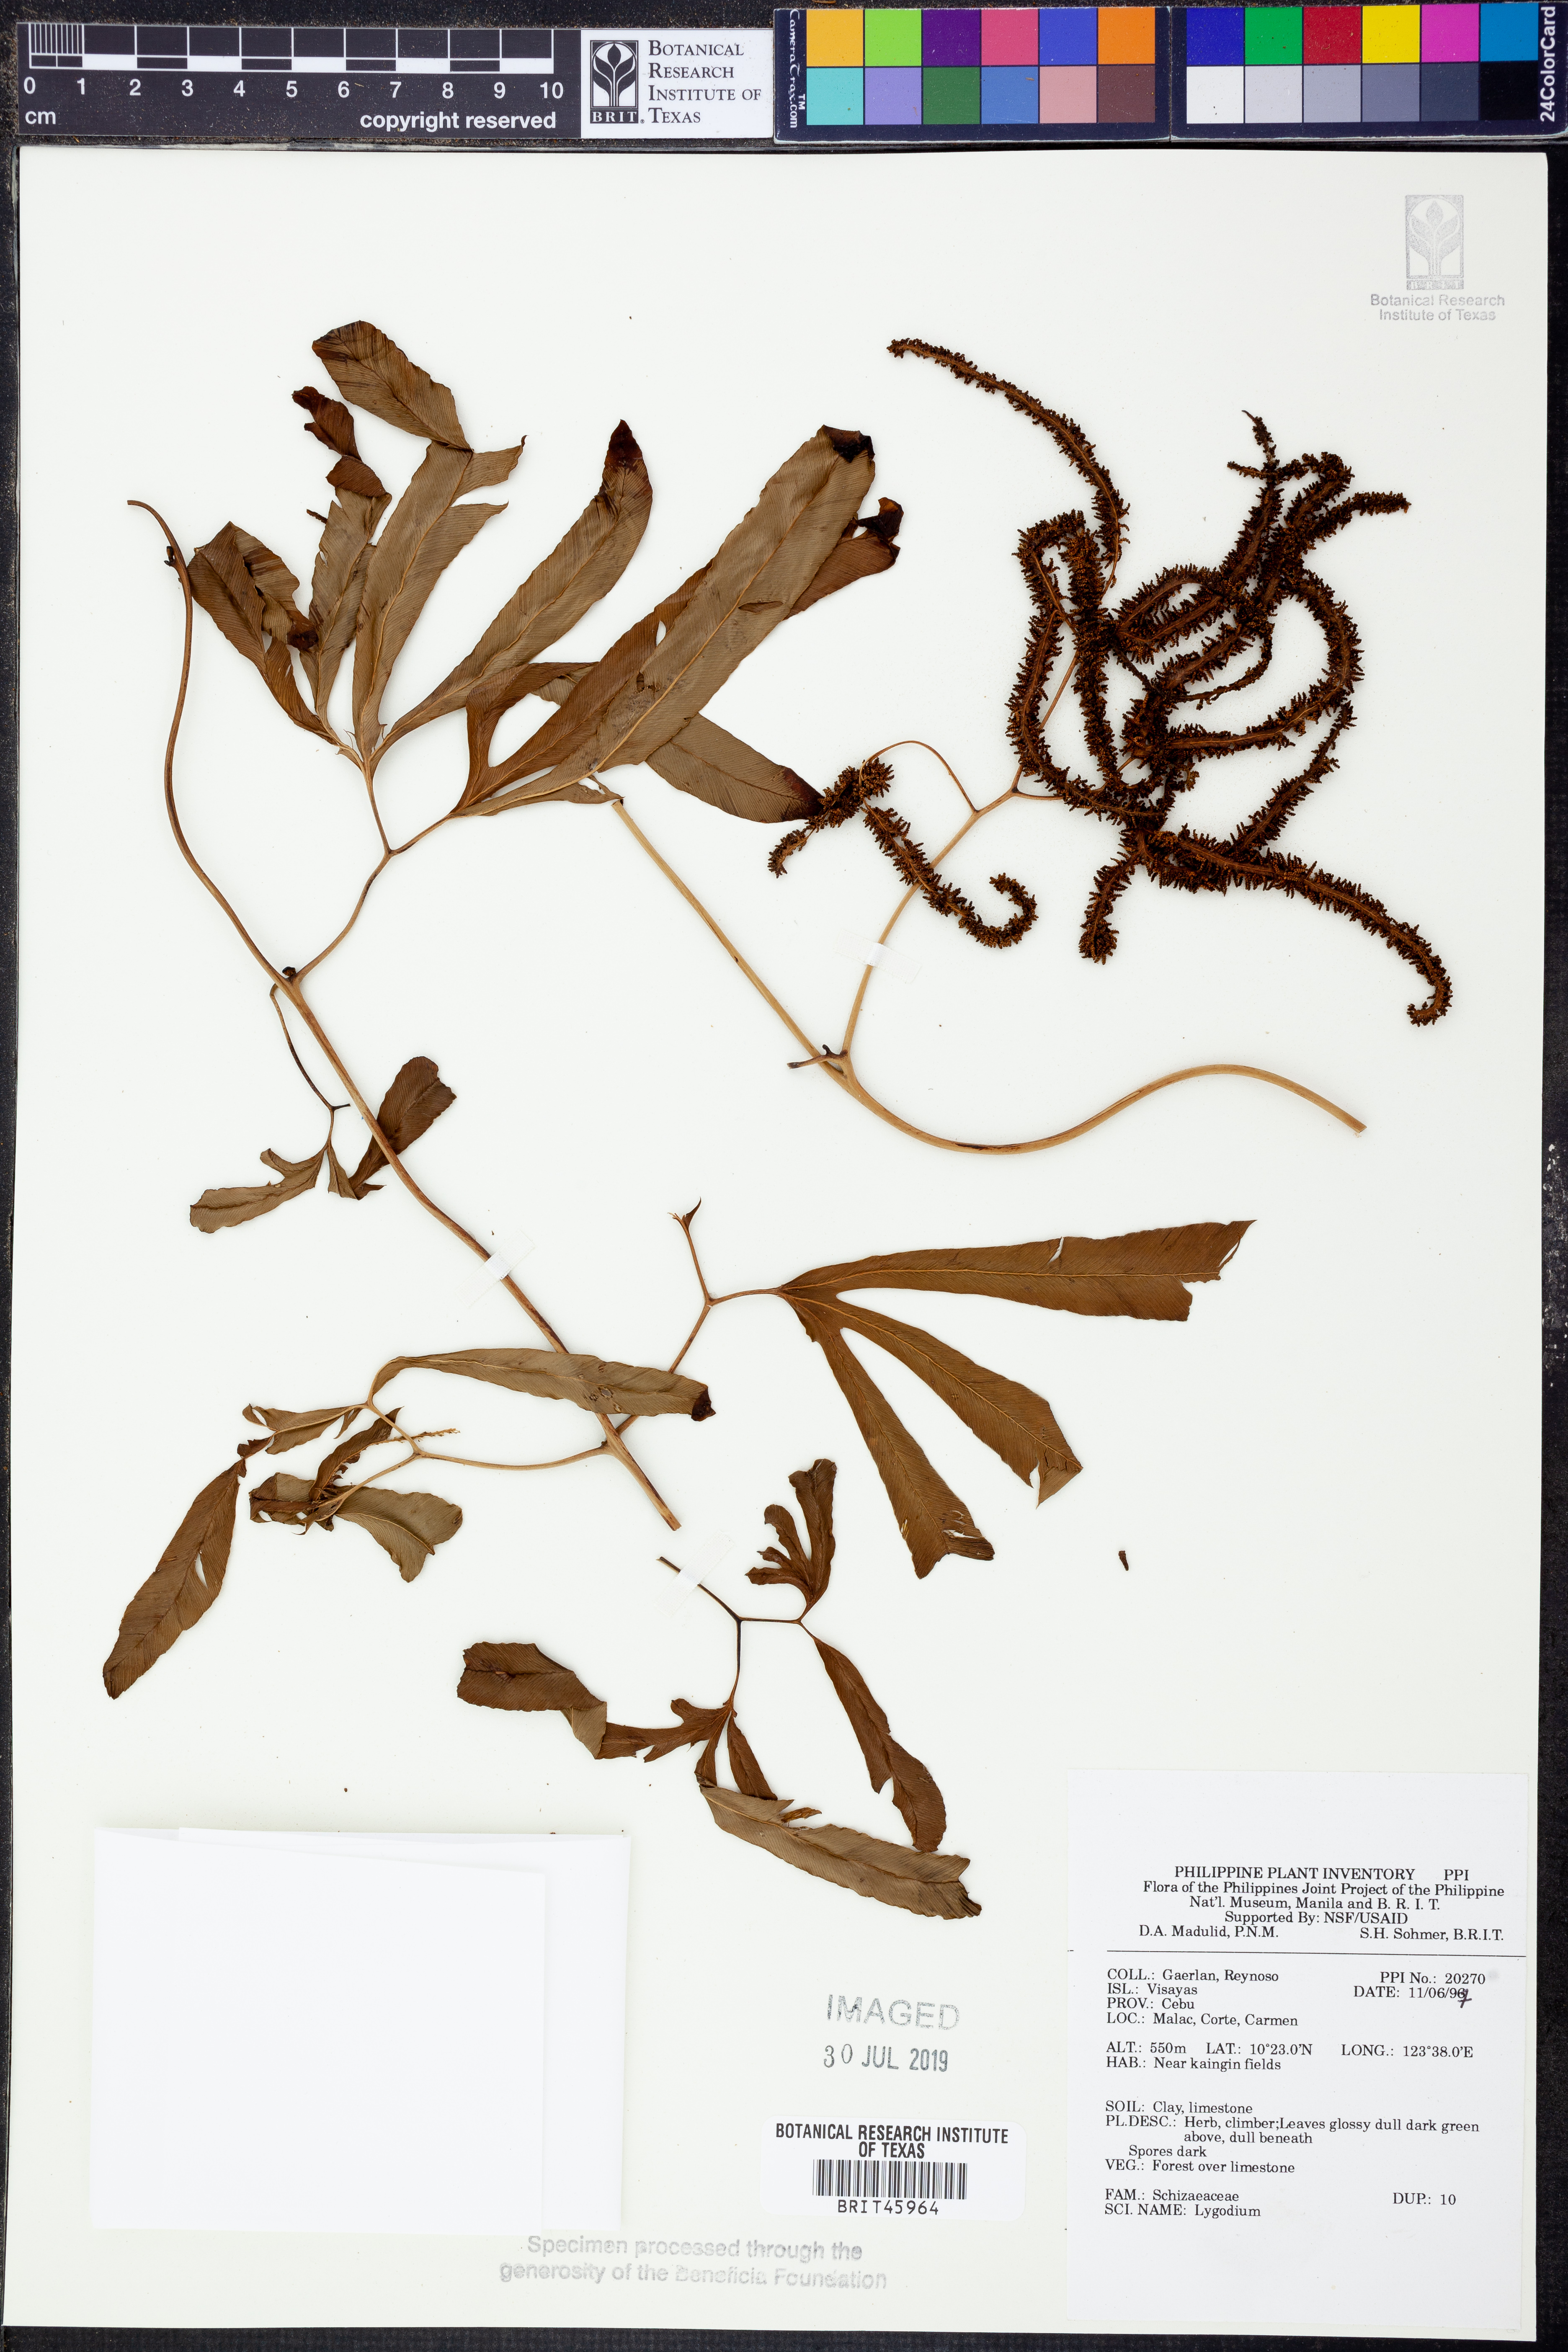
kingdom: Plantae
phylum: Tracheophyta
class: Polypodiopsida
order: Schizaeales
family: Lygodiaceae
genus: Lygodium
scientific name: Lygodium
